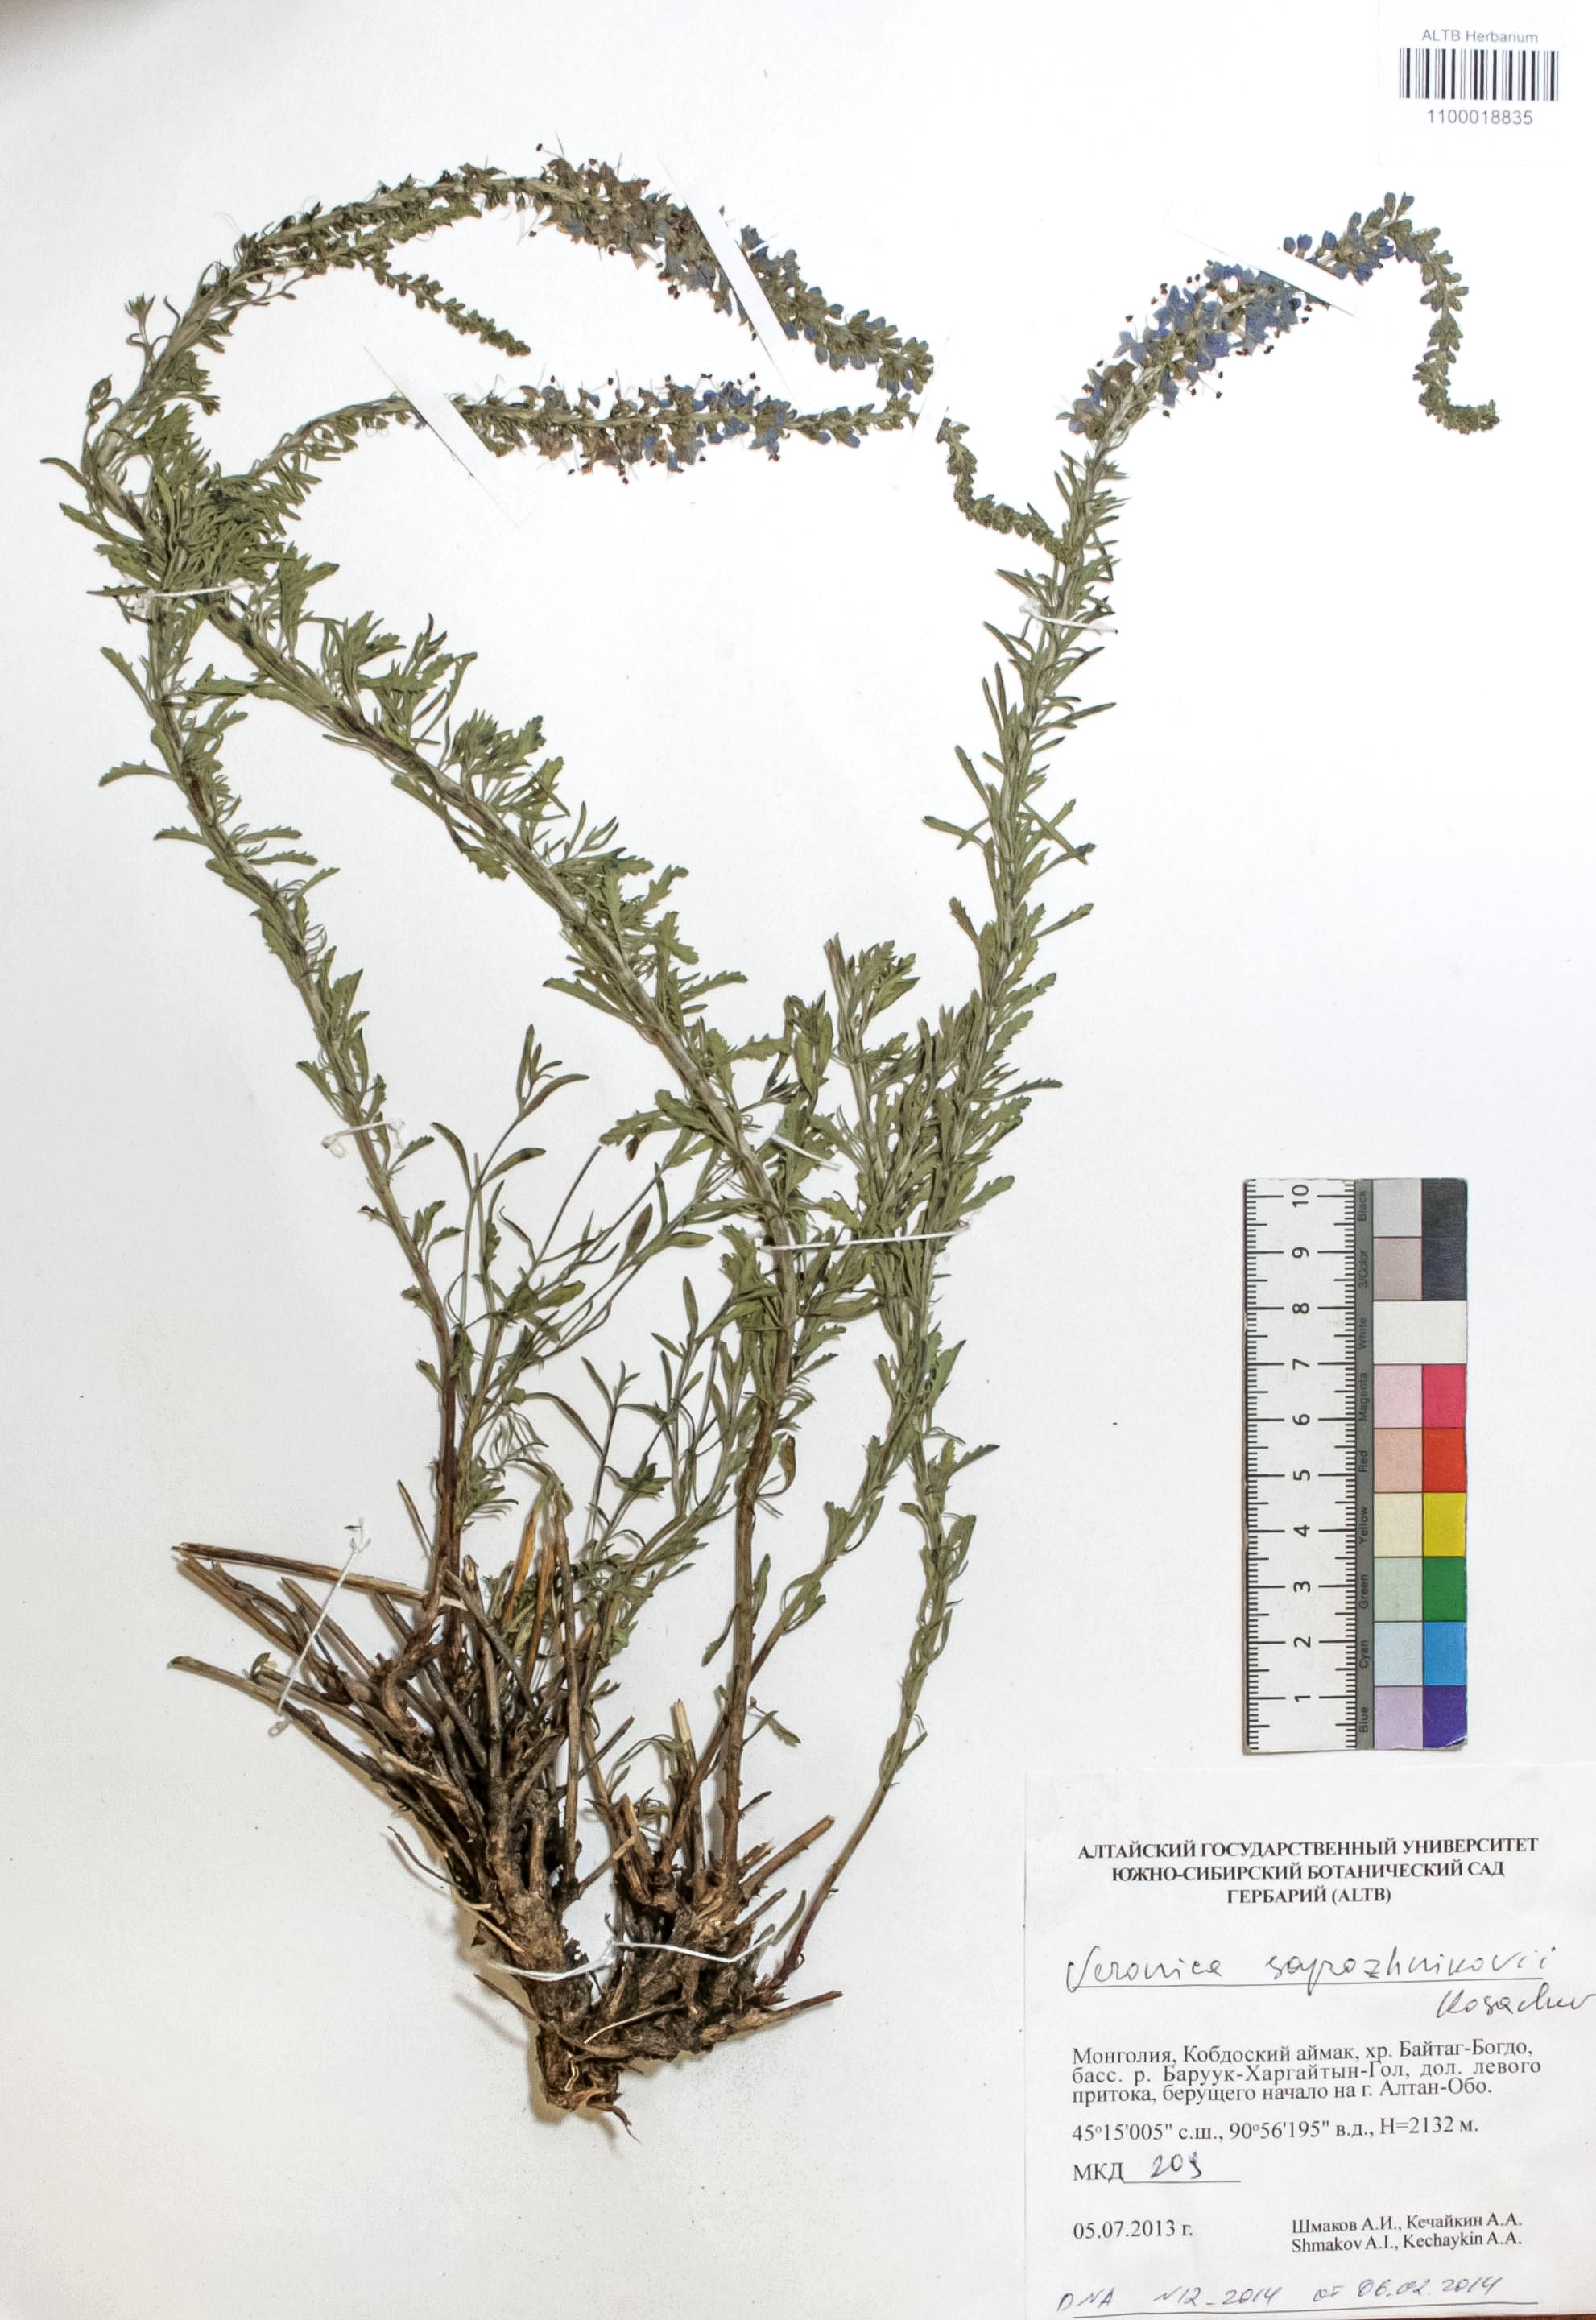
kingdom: Plantae
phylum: Tracheophyta
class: Magnoliopsida
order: Lamiales
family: Plantaginaceae
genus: Veronica
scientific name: Veronica sapozhnikovii
